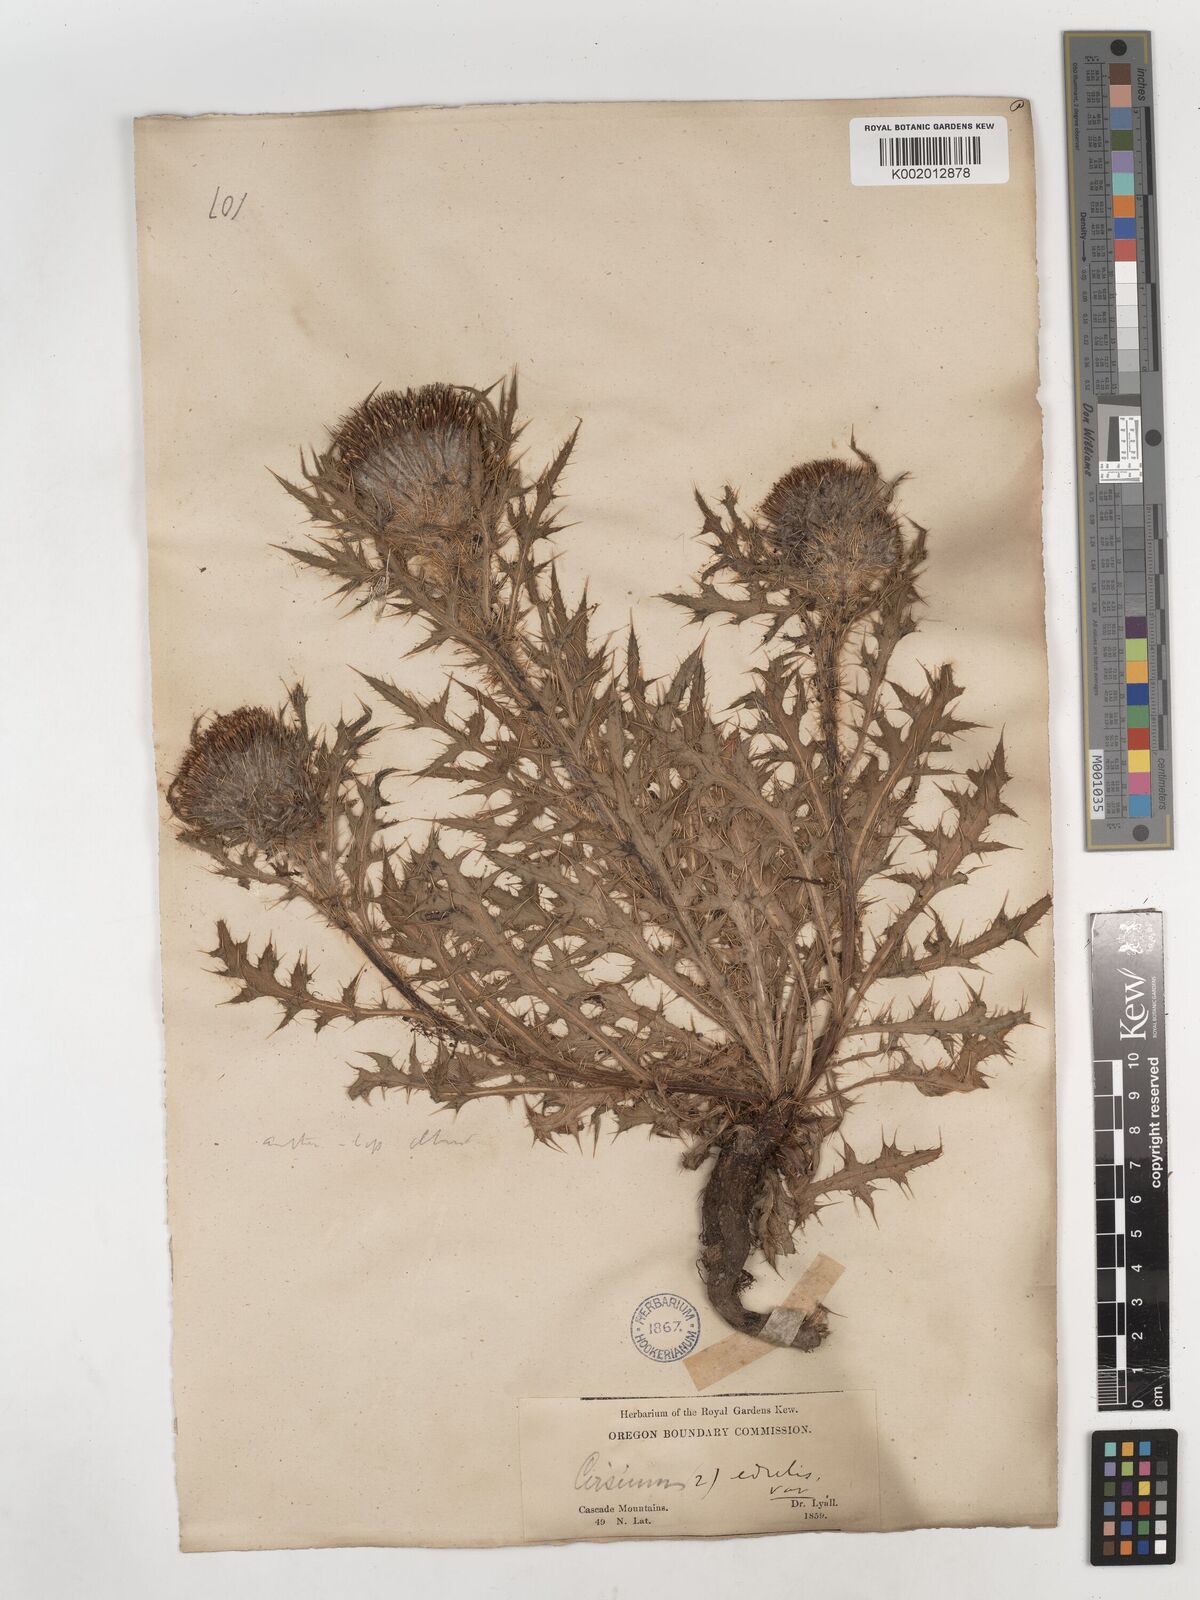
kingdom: Plantae
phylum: Tracheophyta
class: Magnoliopsida
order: Asterales
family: Asteraceae
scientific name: Asteraceae
